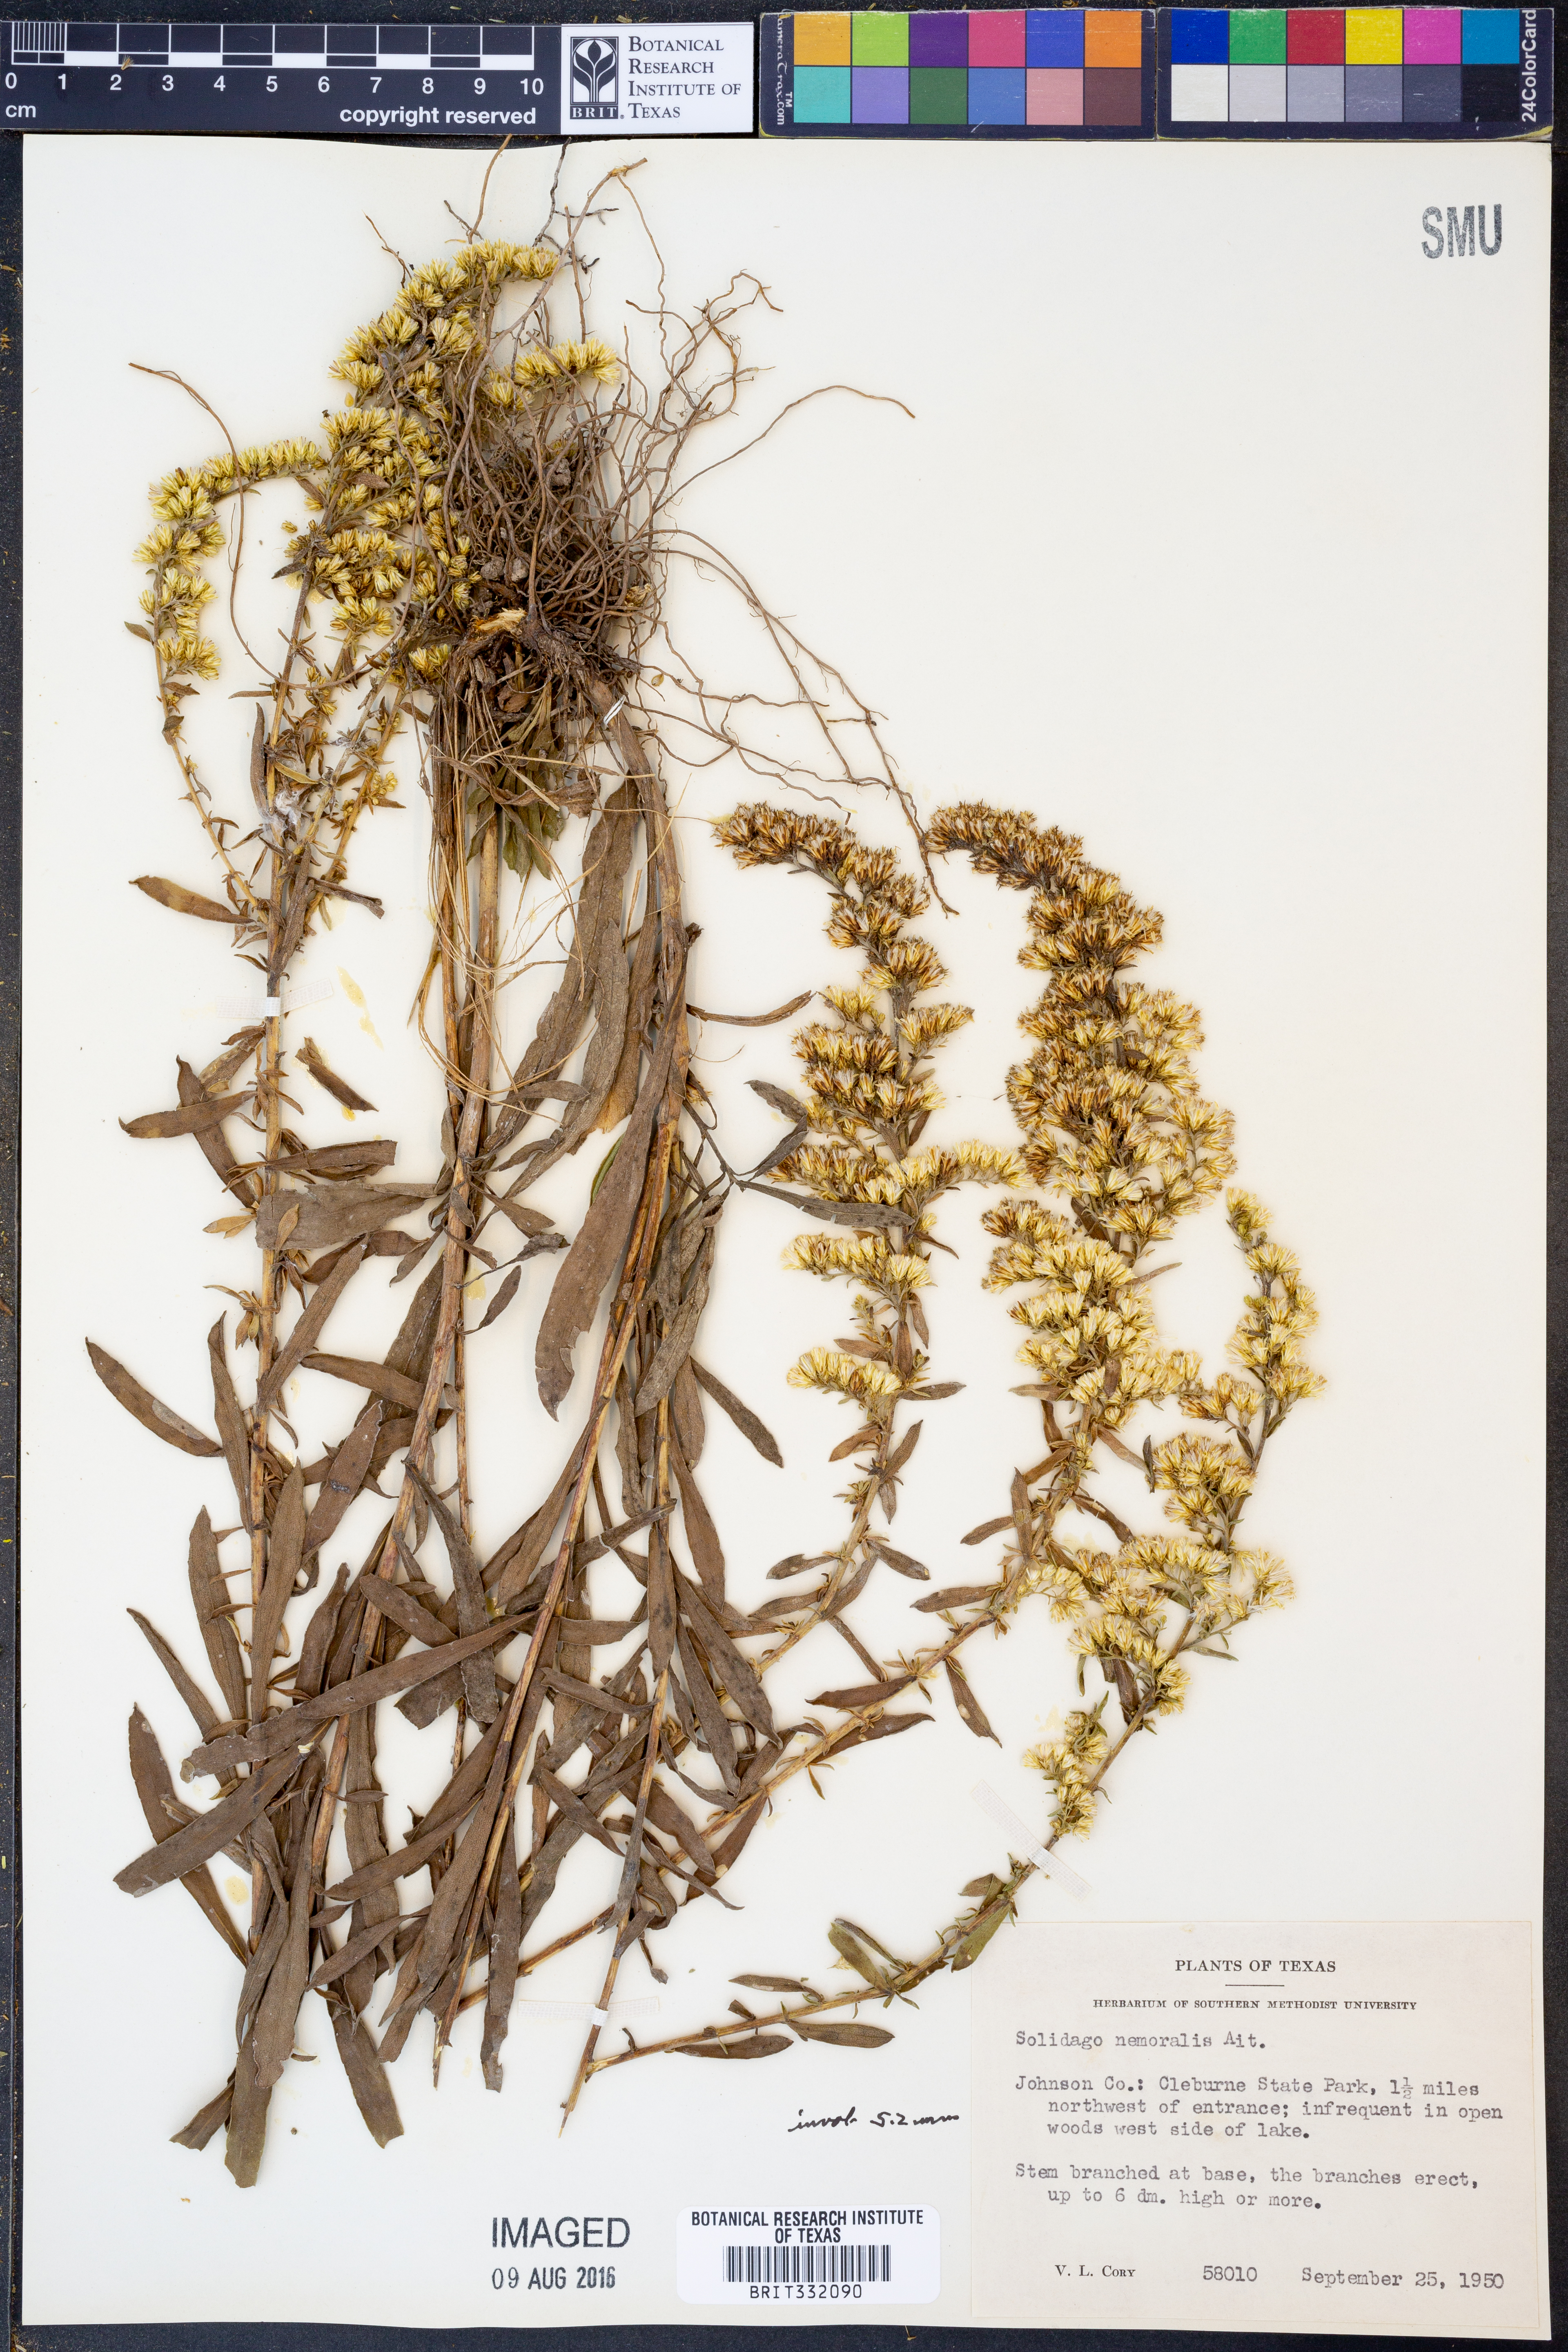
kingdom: Plantae
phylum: Tracheophyta
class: Magnoliopsida
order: Asterales
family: Asteraceae
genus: Solidago
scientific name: Solidago nemoralis
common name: Grey goldenrod
